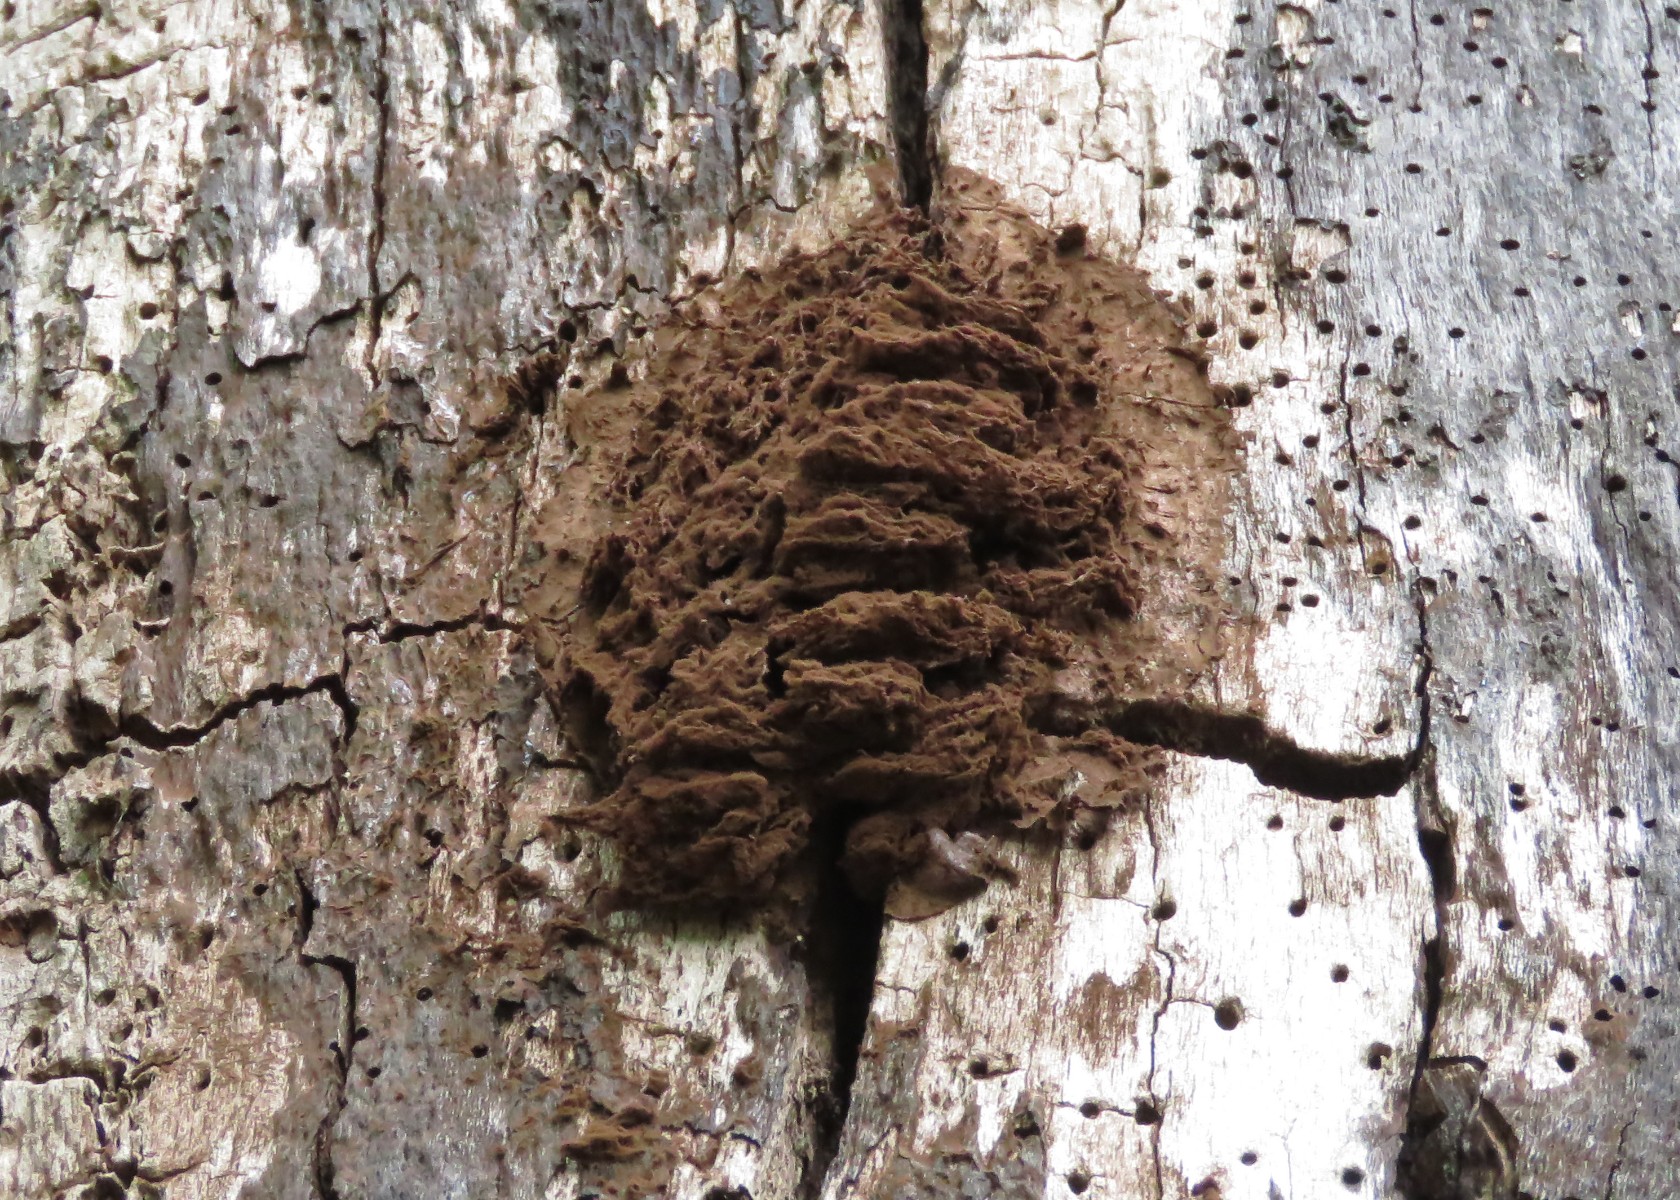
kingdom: Protozoa
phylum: Mycetozoa
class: Myxomycetes
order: Cribrariales
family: Tubiferaceae
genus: Reticularia
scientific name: Reticularia lycoperdon
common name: skinnende støvpude
